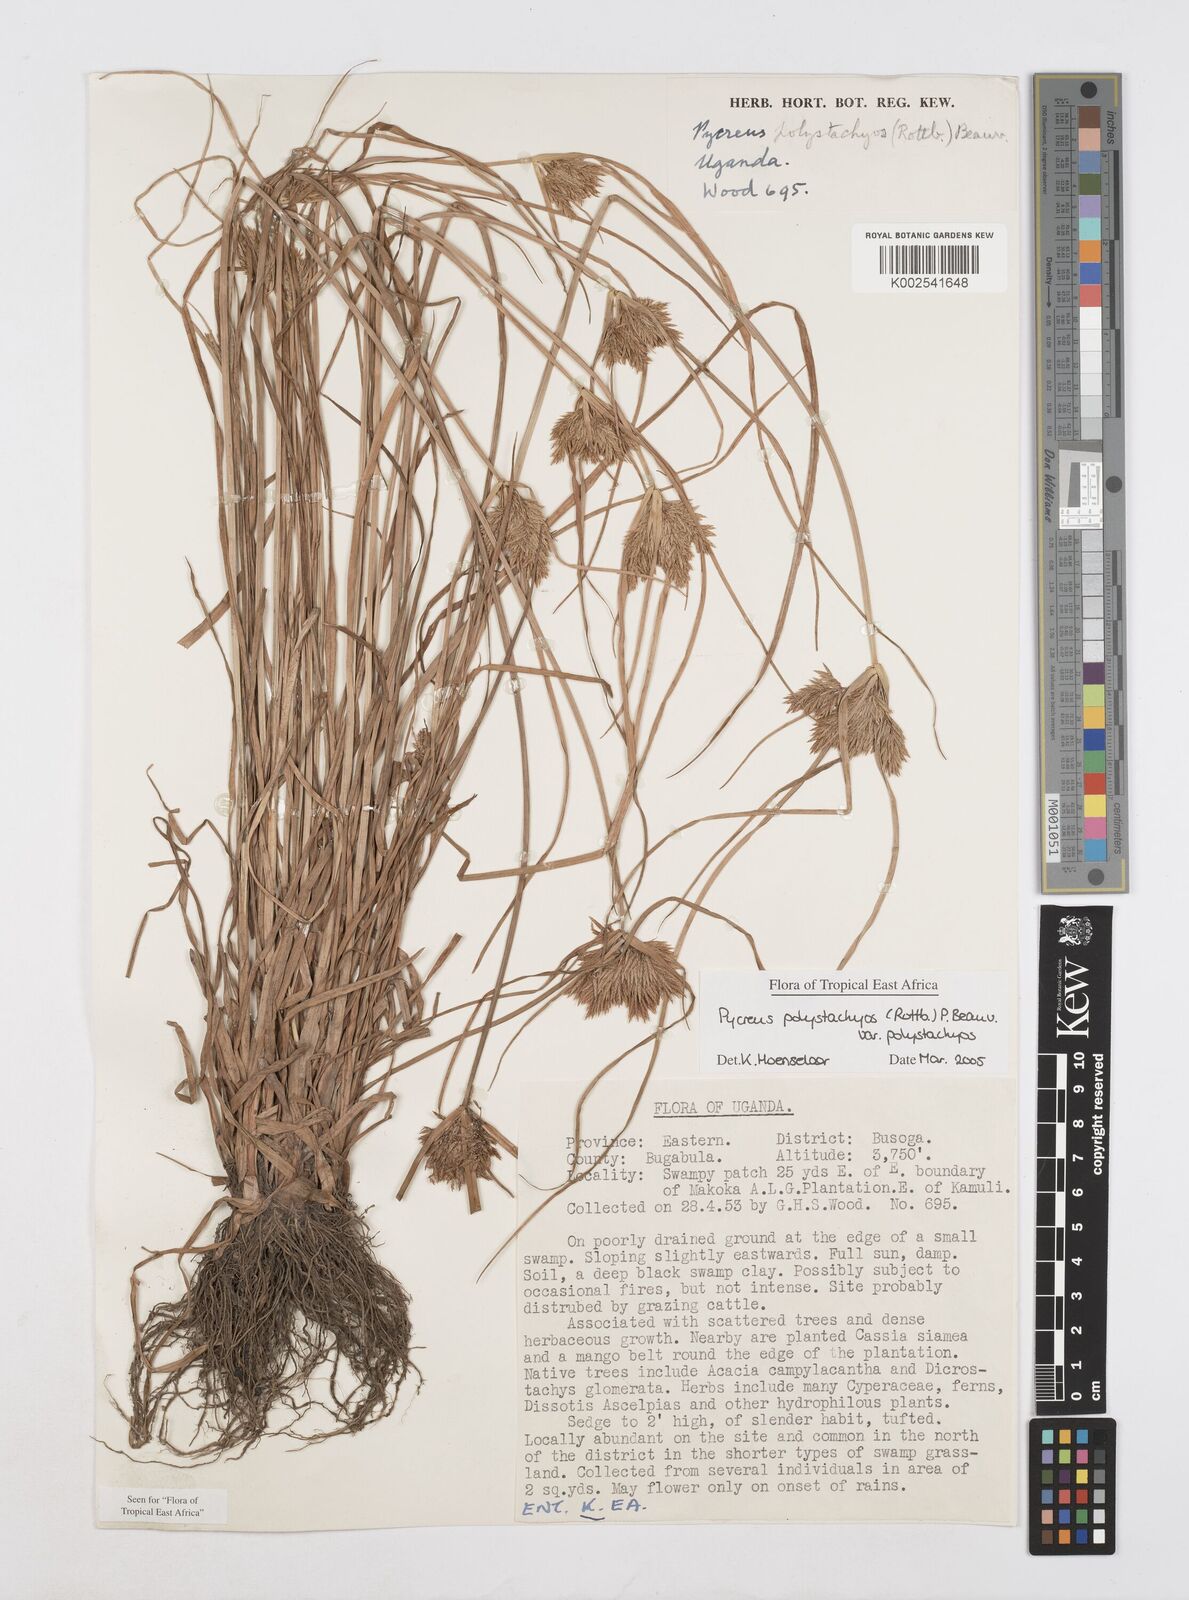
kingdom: Plantae
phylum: Tracheophyta
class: Liliopsida
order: Poales
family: Cyperaceae
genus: Cyperus
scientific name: Cyperus polystachyos
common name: Bunchy flat sedge
